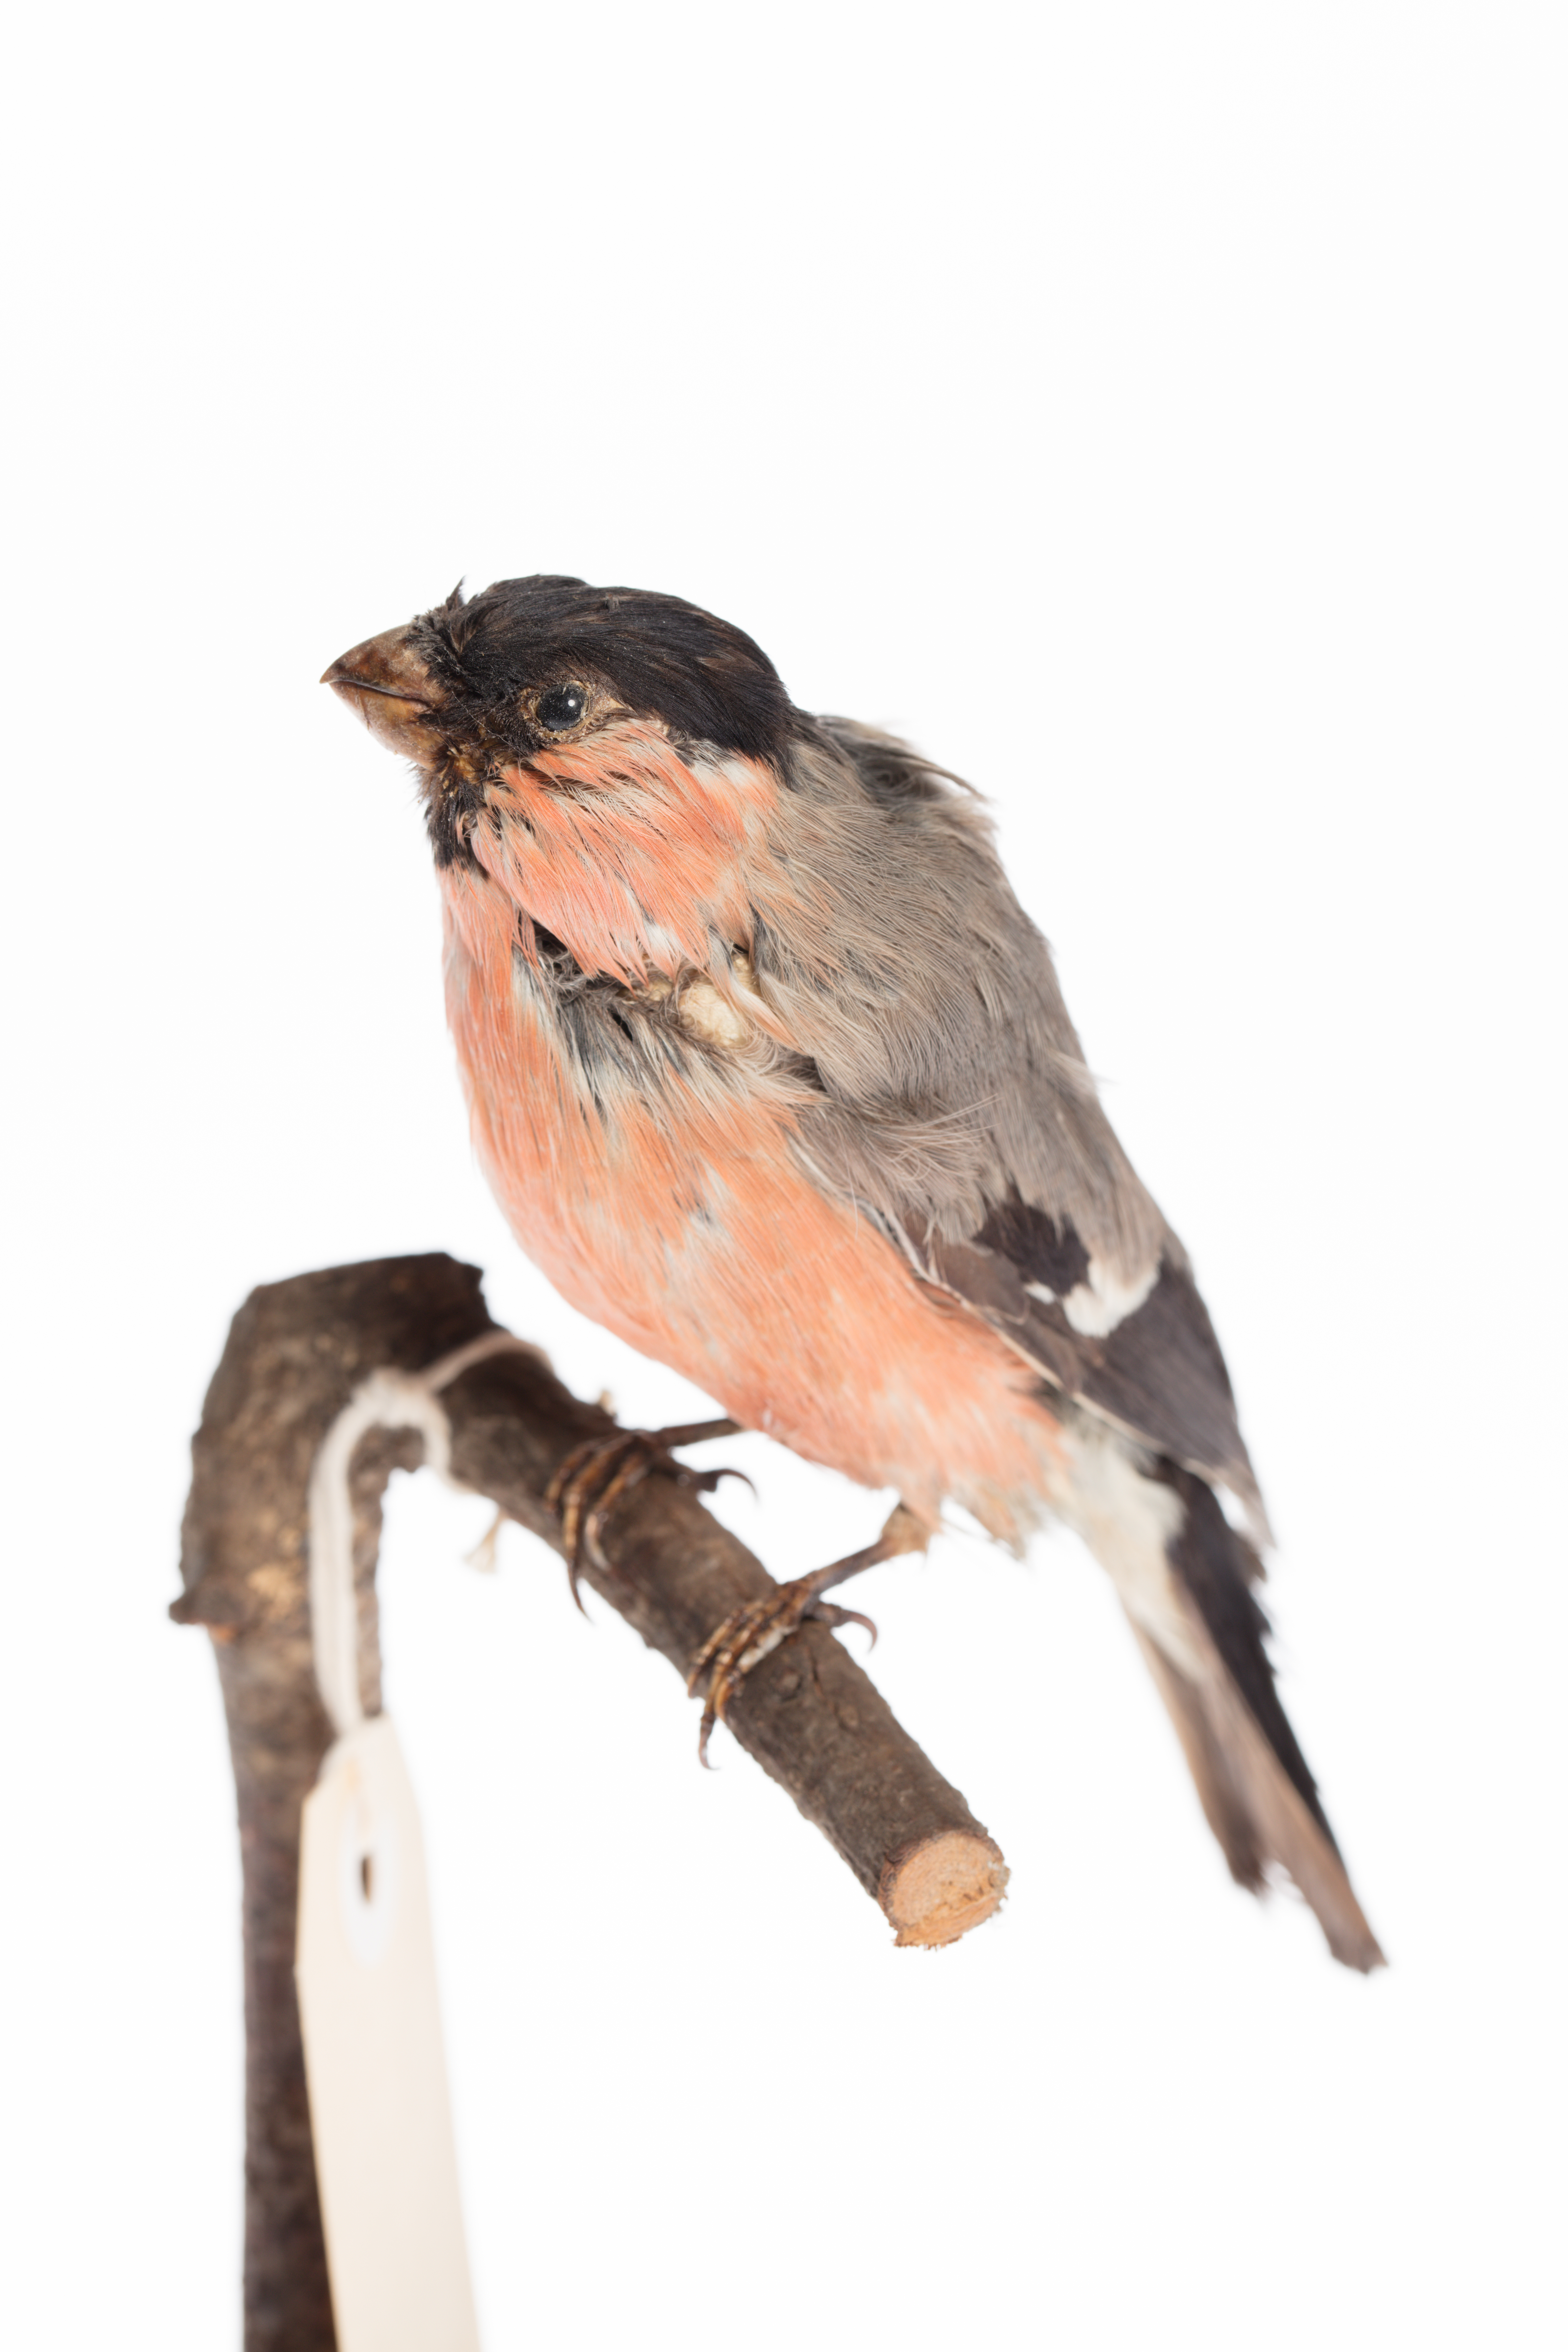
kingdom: Animalia
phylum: Chordata
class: Aves
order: Passeriformes
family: Fringillidae
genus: Pyrrhula
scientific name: Pyrrhula pyrrhula
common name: Eurasian bullfinch
